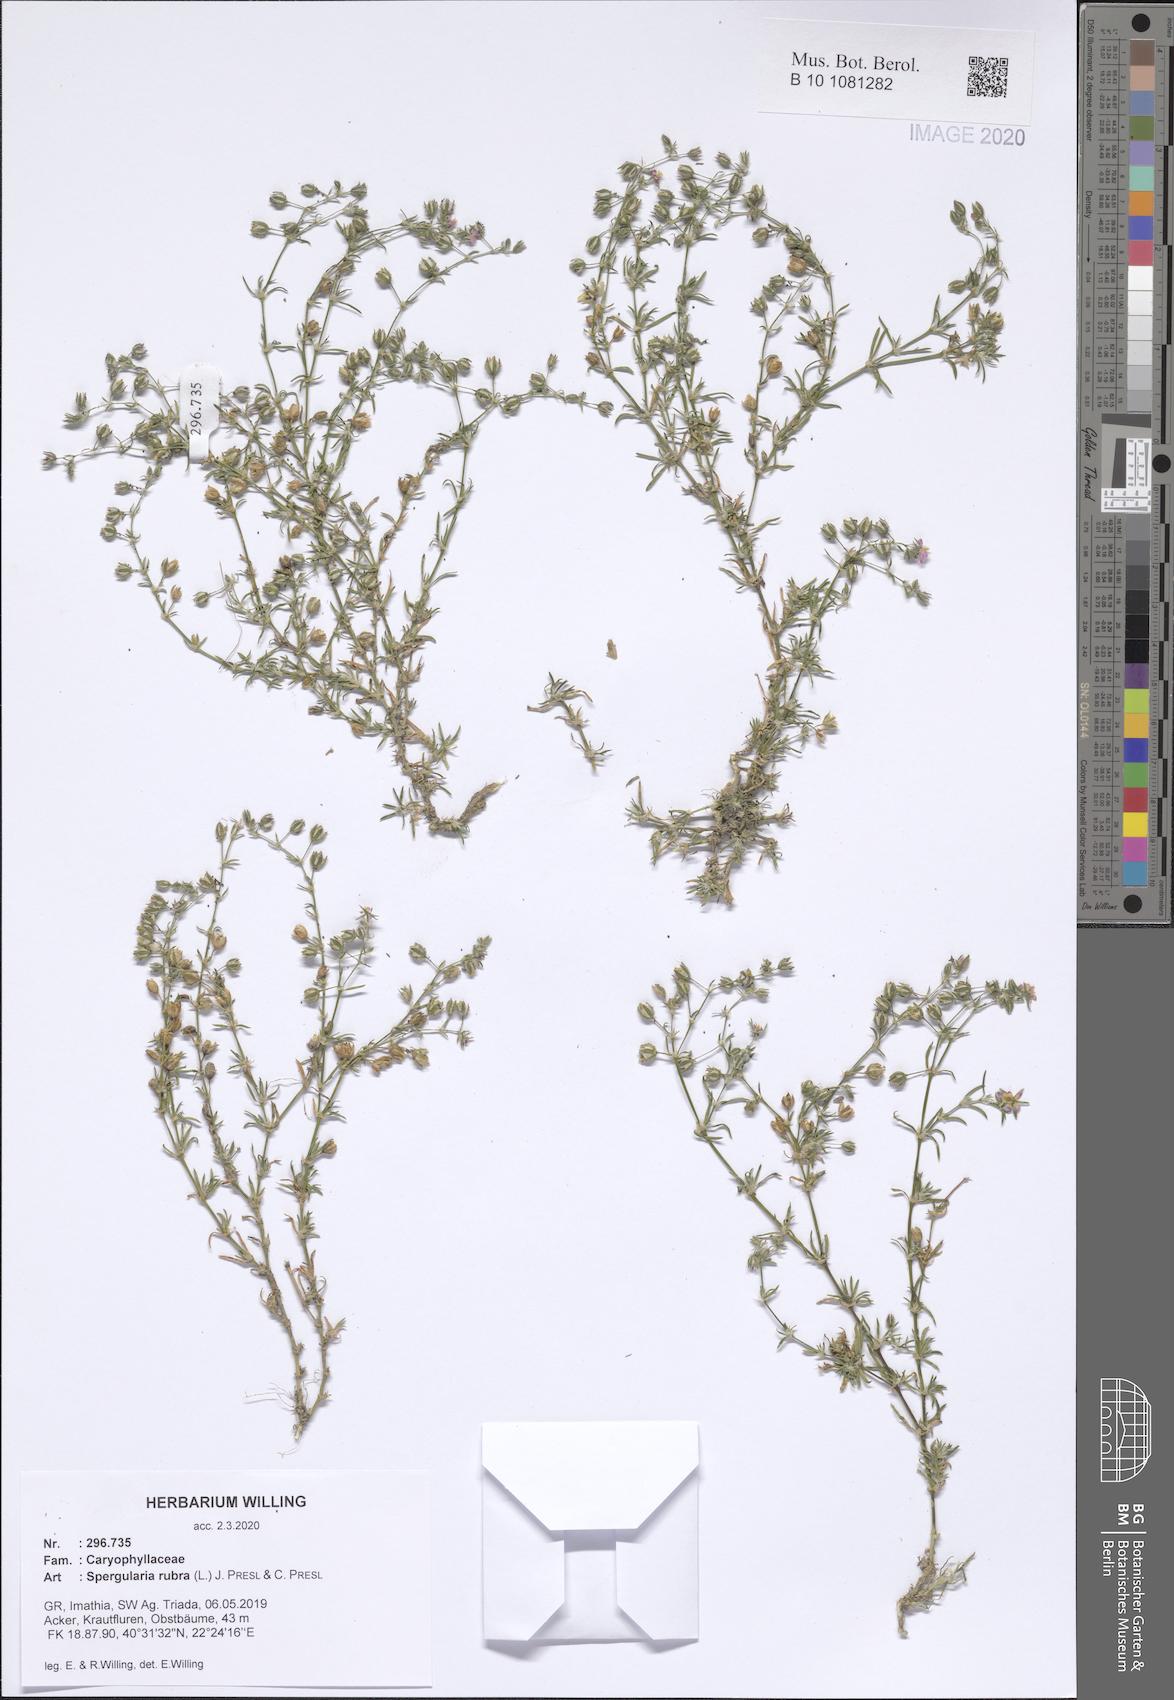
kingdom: Plantae
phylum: Tracheophyta
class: Magnoliopsida
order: Caryophyllales
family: Caryophyllaceae
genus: Spergularia
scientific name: Spergularia rubra
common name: Red sand-spurrey
